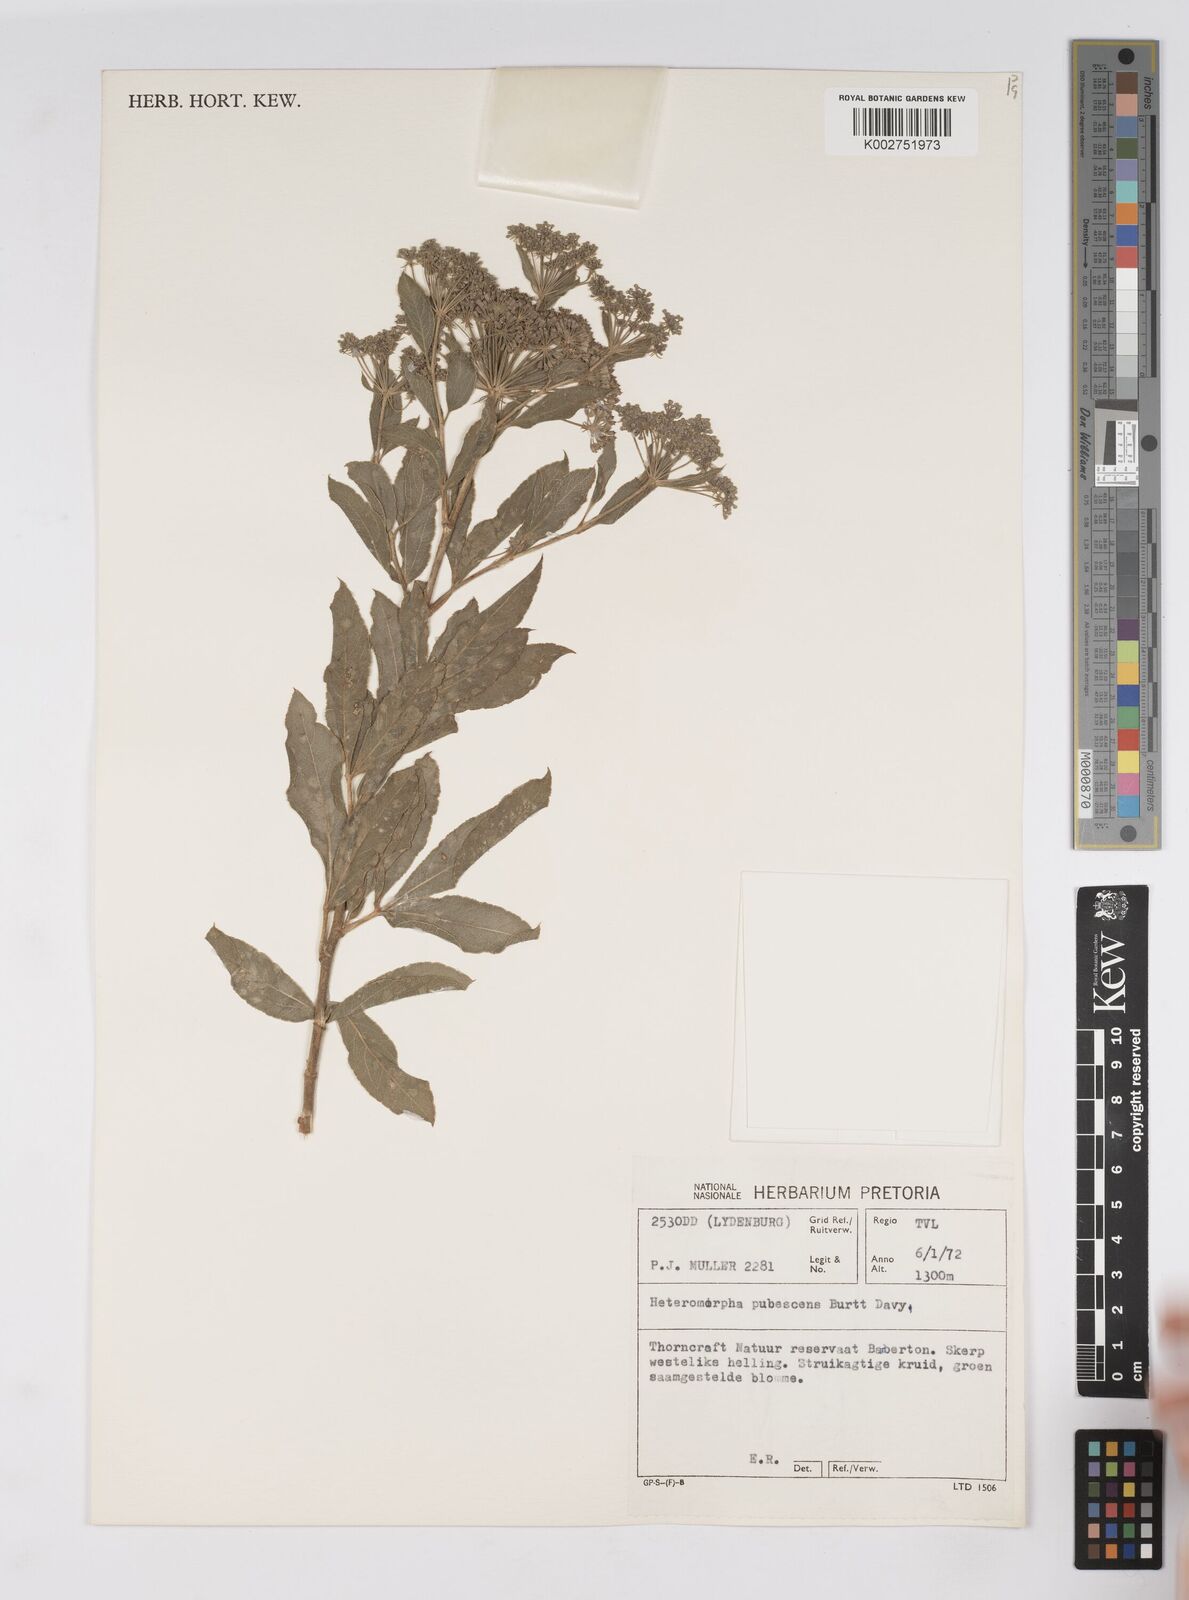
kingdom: Plantae
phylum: Tracheophyta
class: Magnoliopsida
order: Apiales
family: Apiaceae
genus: Heteromorpha
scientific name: Heteromorpha pubescens
